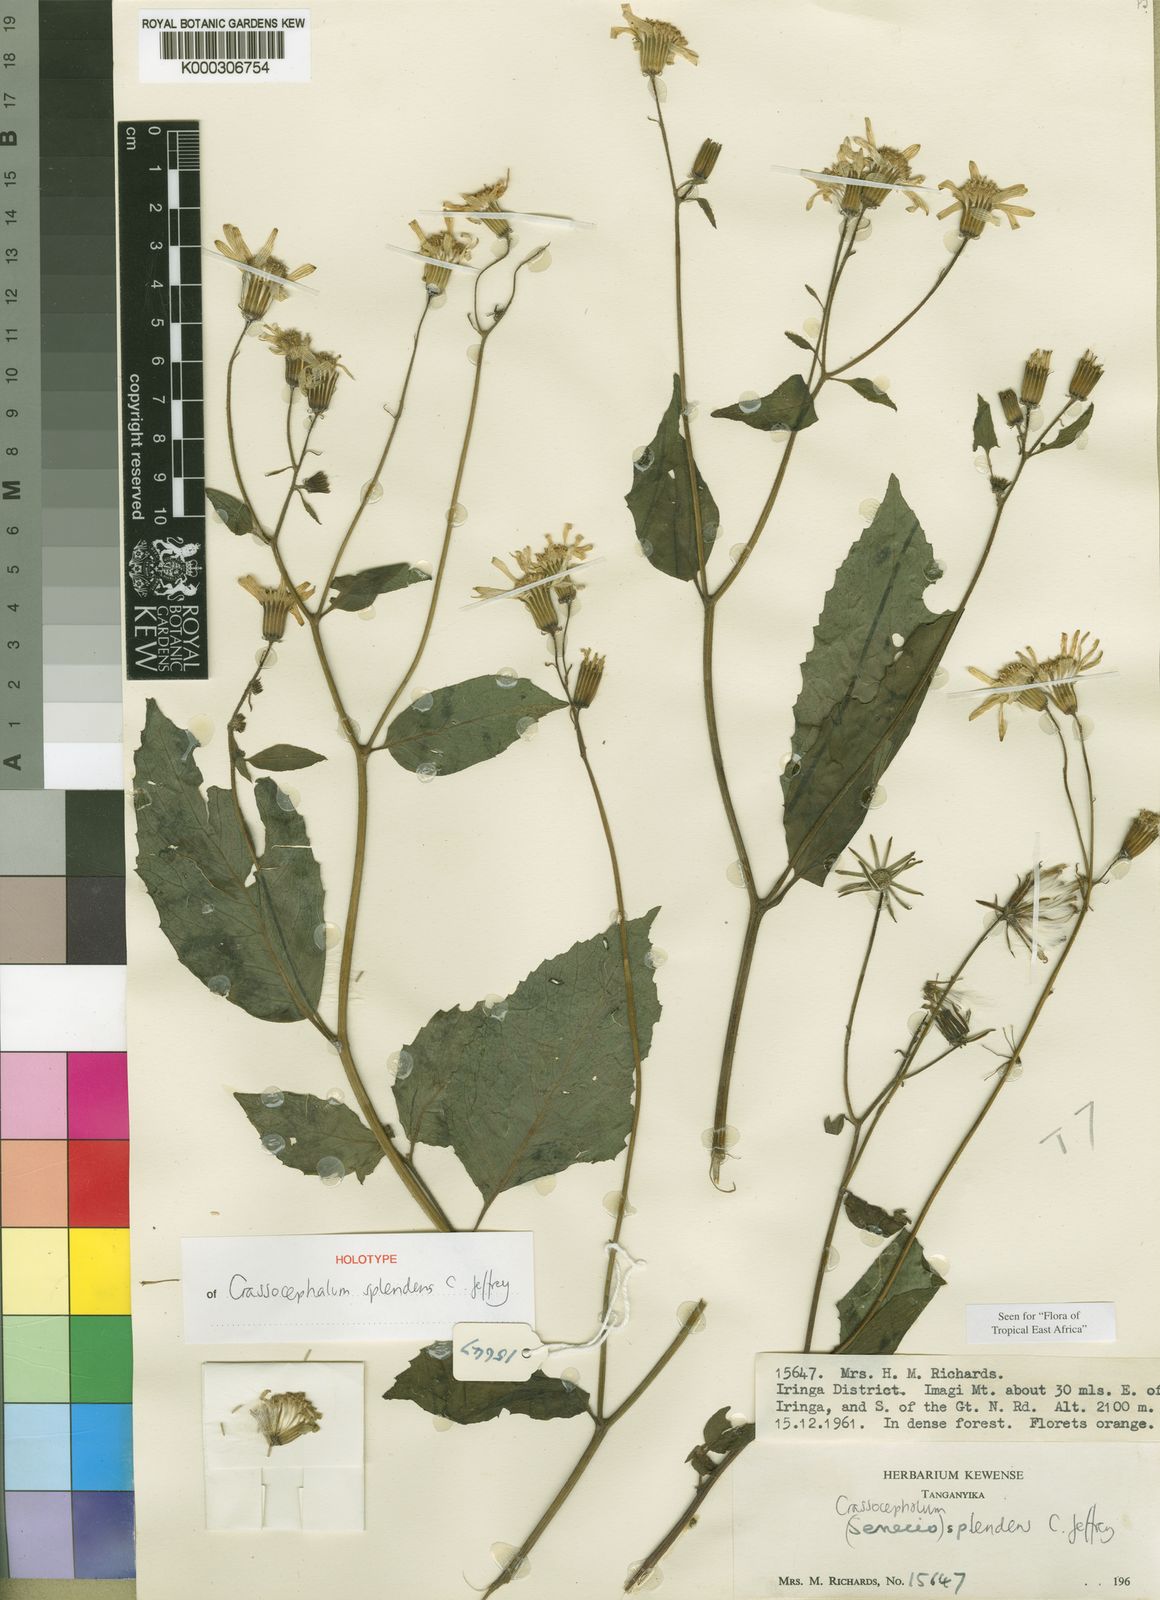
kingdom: Plantae
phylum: Tracheophyta
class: Magnoliopsida
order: Asterales
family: Asteraceae
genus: Crassocephalum
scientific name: Crassocephalum splendens
